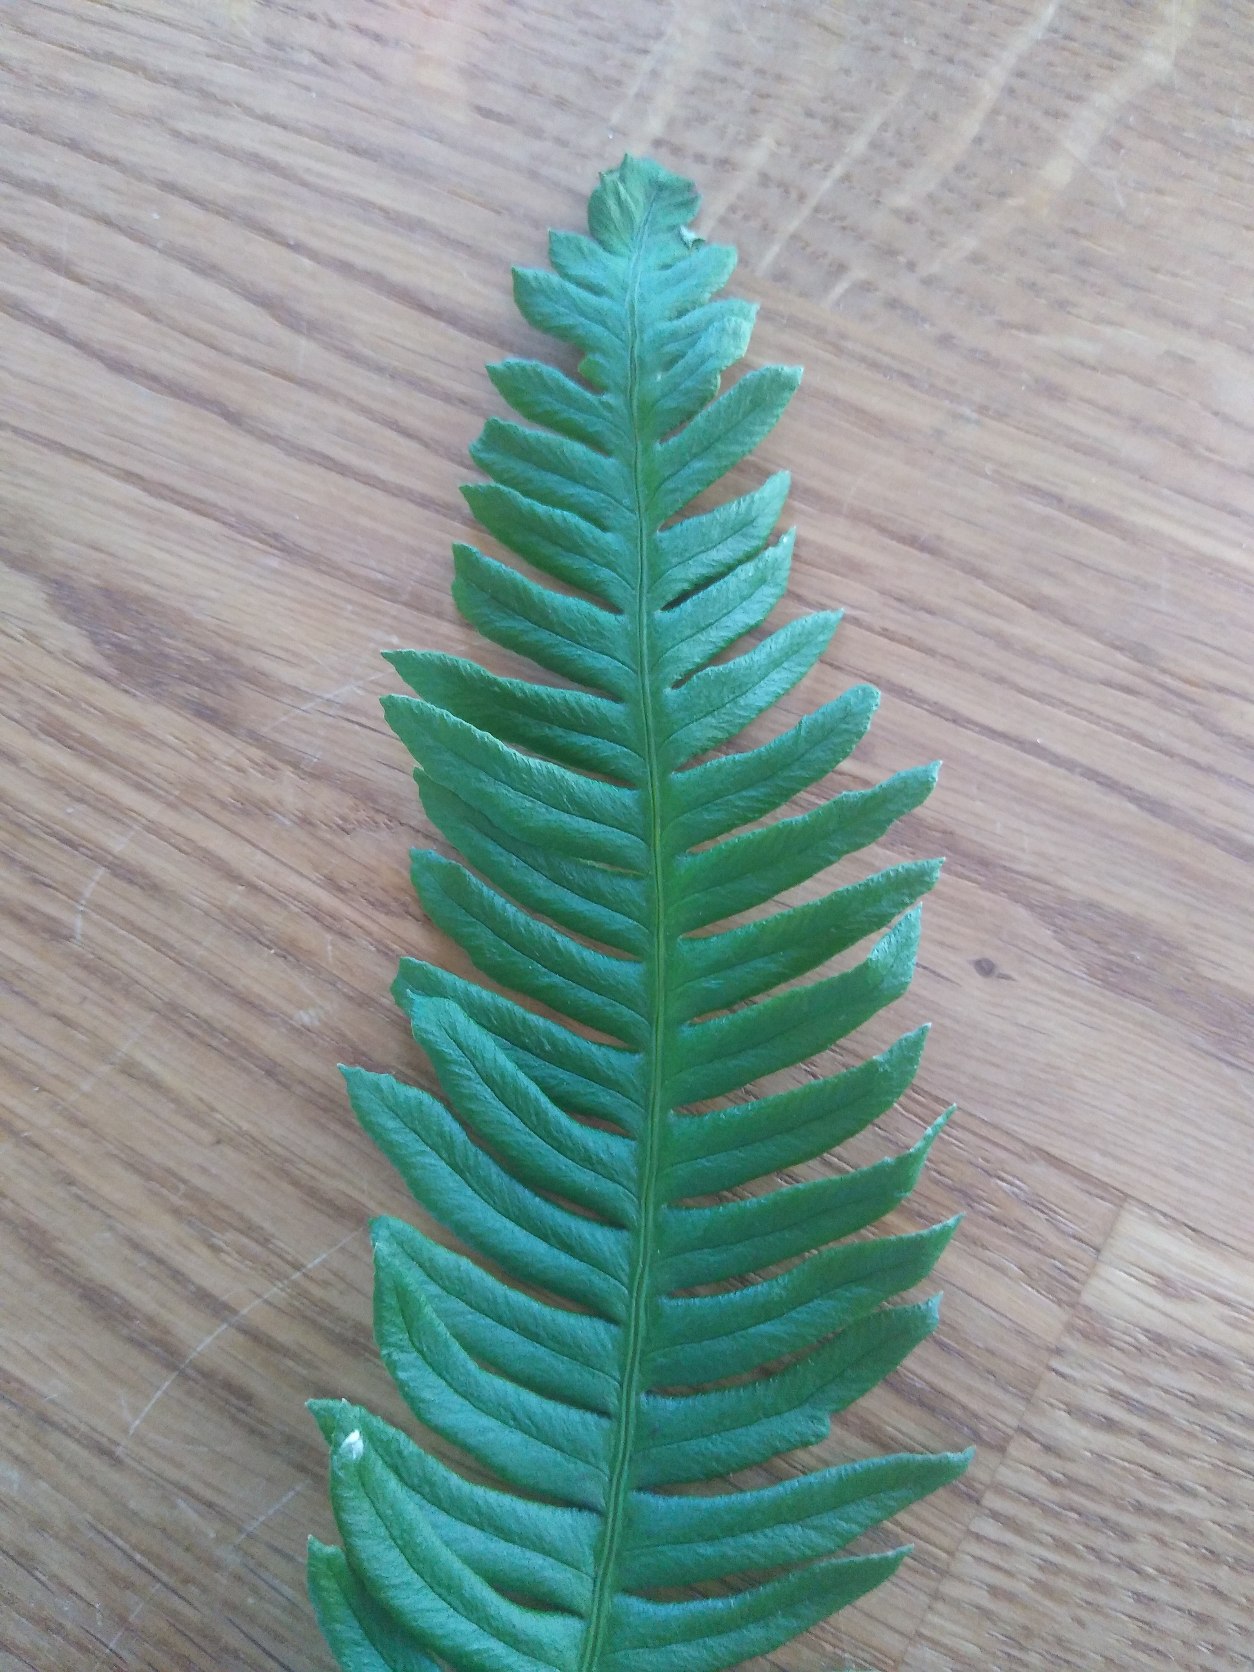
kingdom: Plantae
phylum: Tracheophyta
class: Polypodiopsida
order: Polypodiales
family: Blechnaceae
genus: Struthiopteris
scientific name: Struthiopteris spicant
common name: Kambregne
